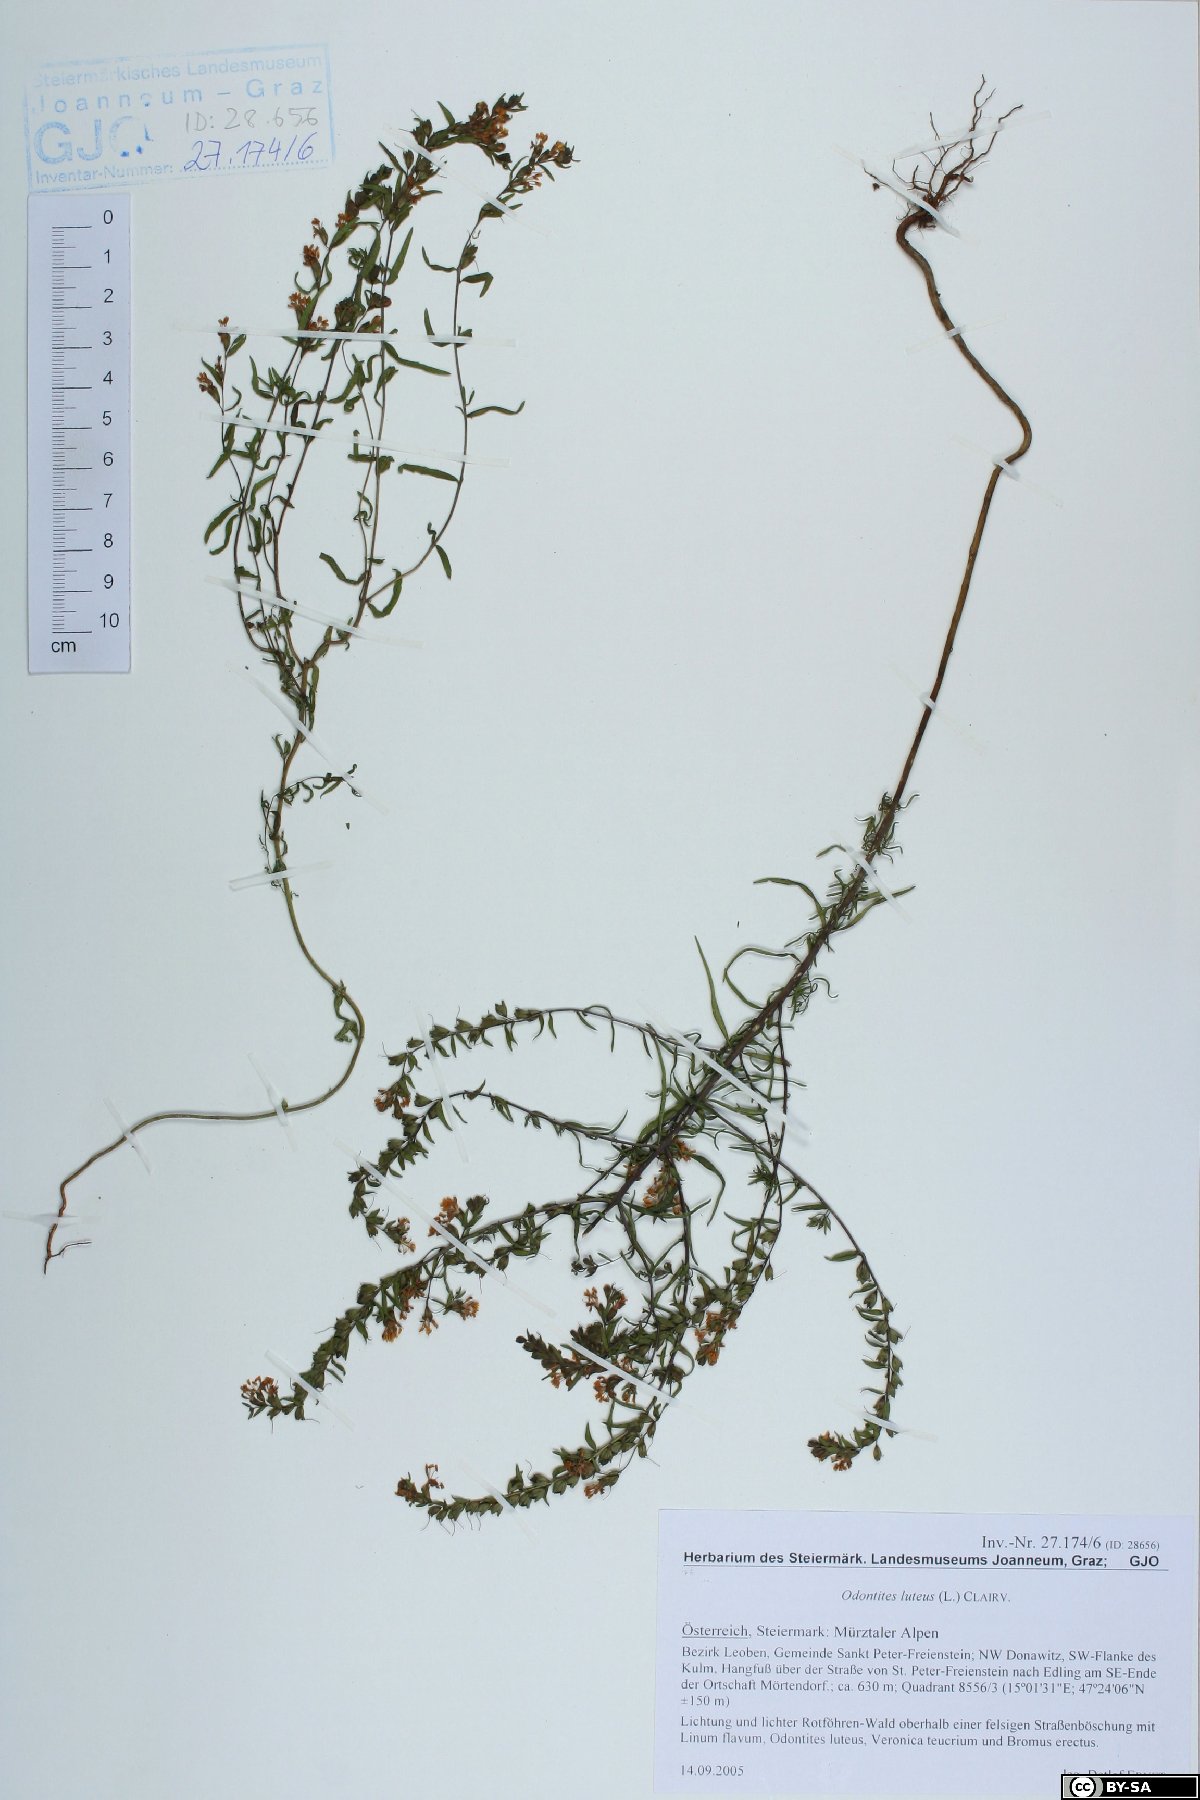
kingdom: Plantae
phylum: Tracheophyta
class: Magnoliopsida
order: Lamiales
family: Orobanchaceae
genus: Odontites
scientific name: Odontites luteus
